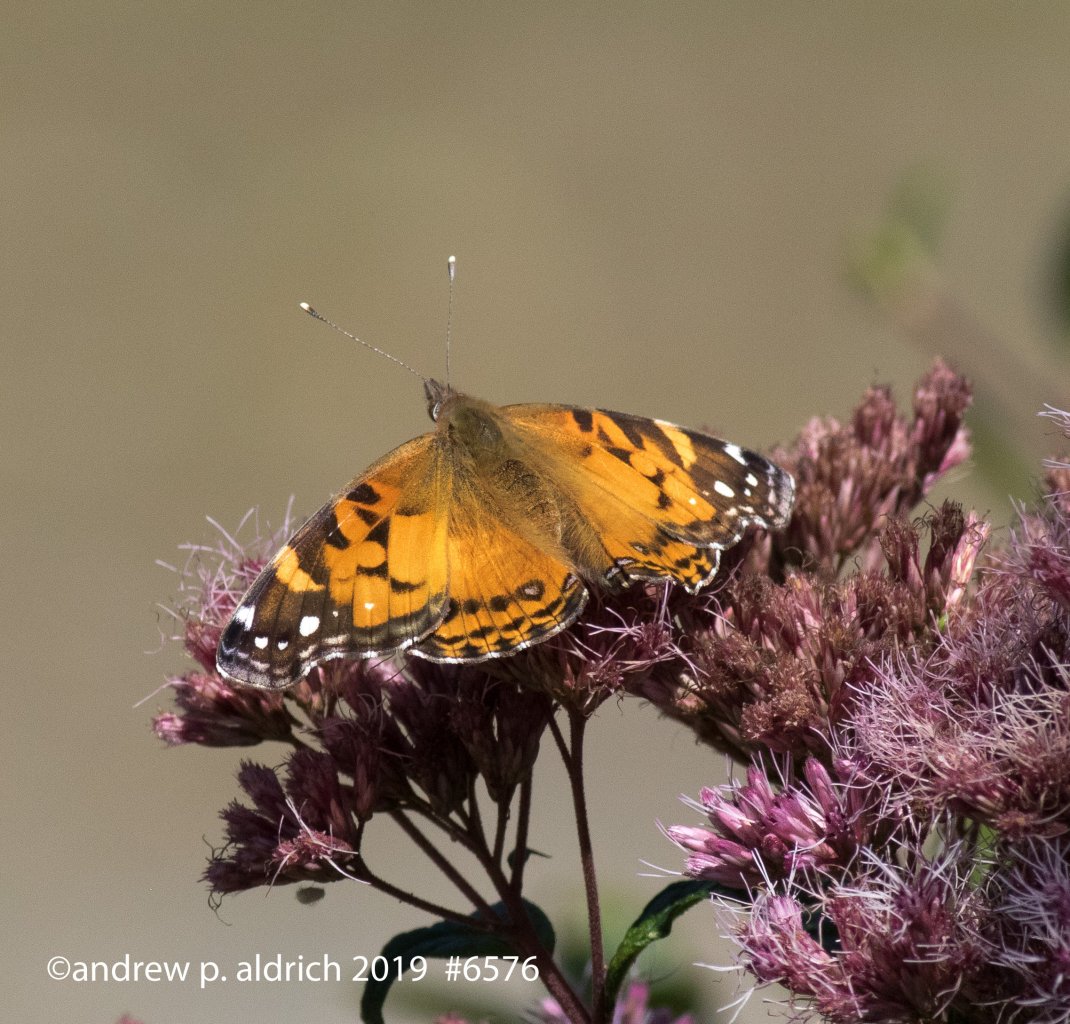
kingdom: Animalia
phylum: Arthropoda
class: Insecta
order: Lepidoptera
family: Nymphalidae
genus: Vanessa
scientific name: Vanessa virginiensis
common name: American Lady
